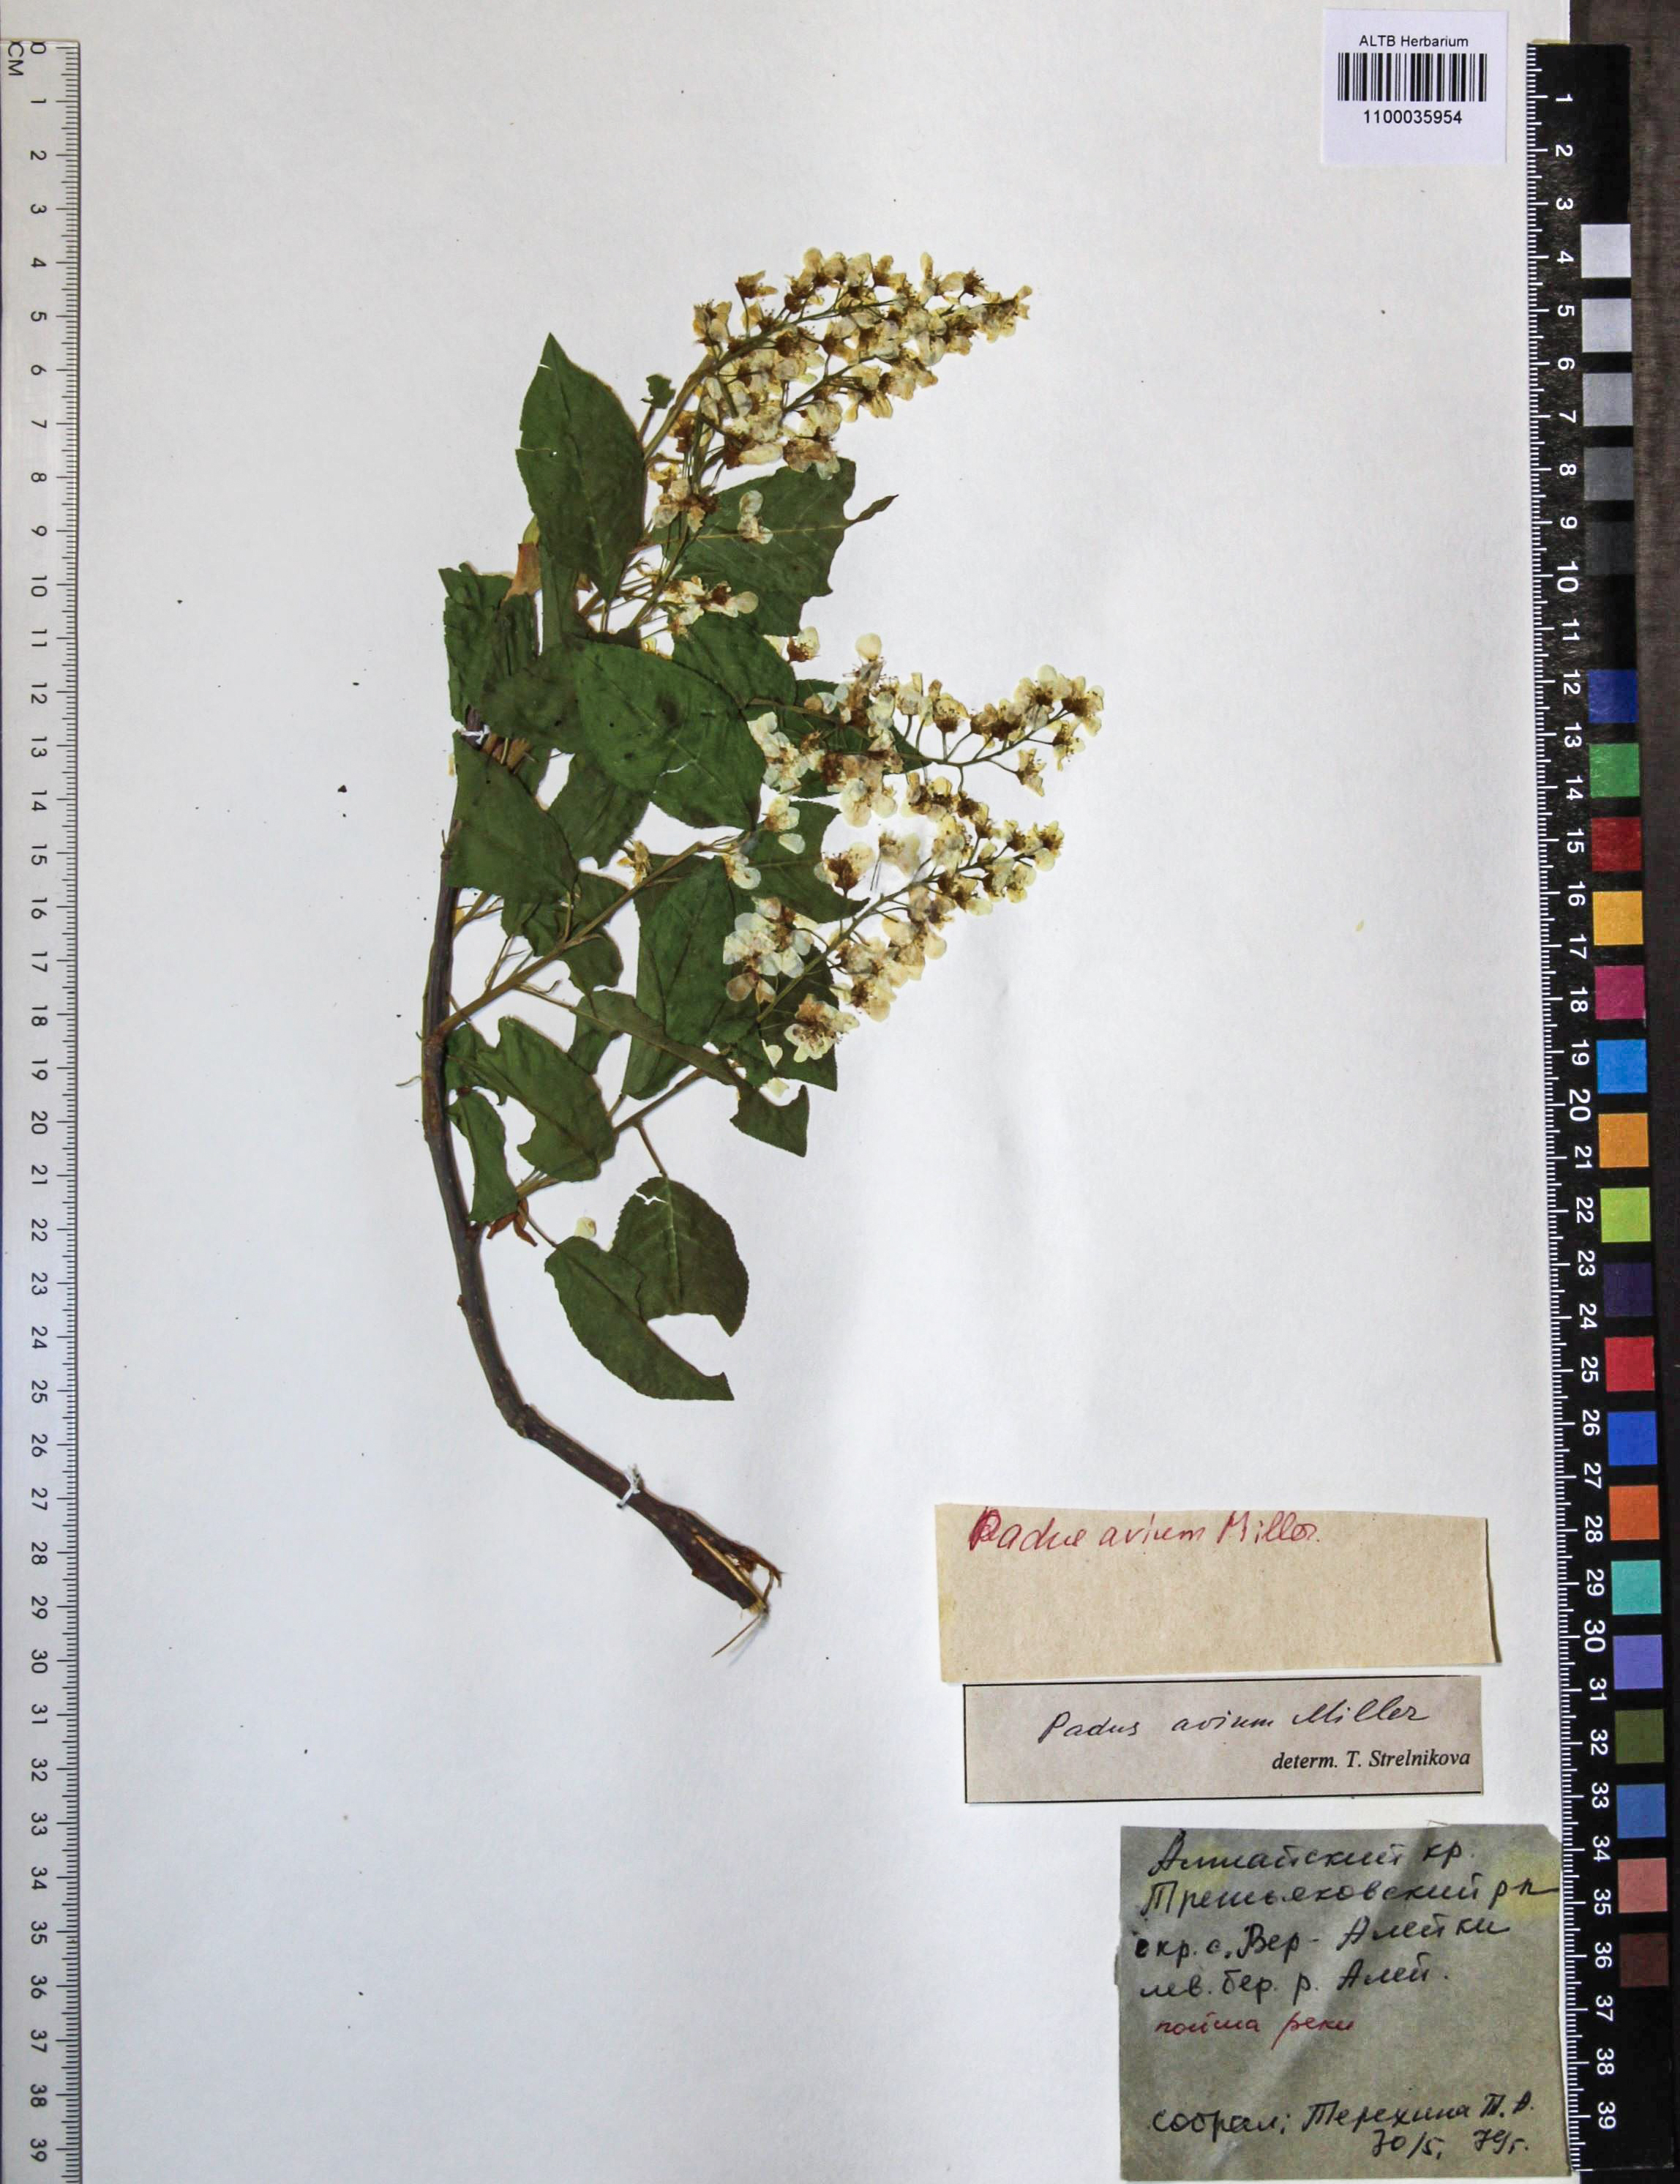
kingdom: Plantae
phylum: Tracheophyta
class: Magnoliopsida
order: Rosales
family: Rosaceae
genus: Prunus
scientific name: Prunus padus
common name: Bird cherry
